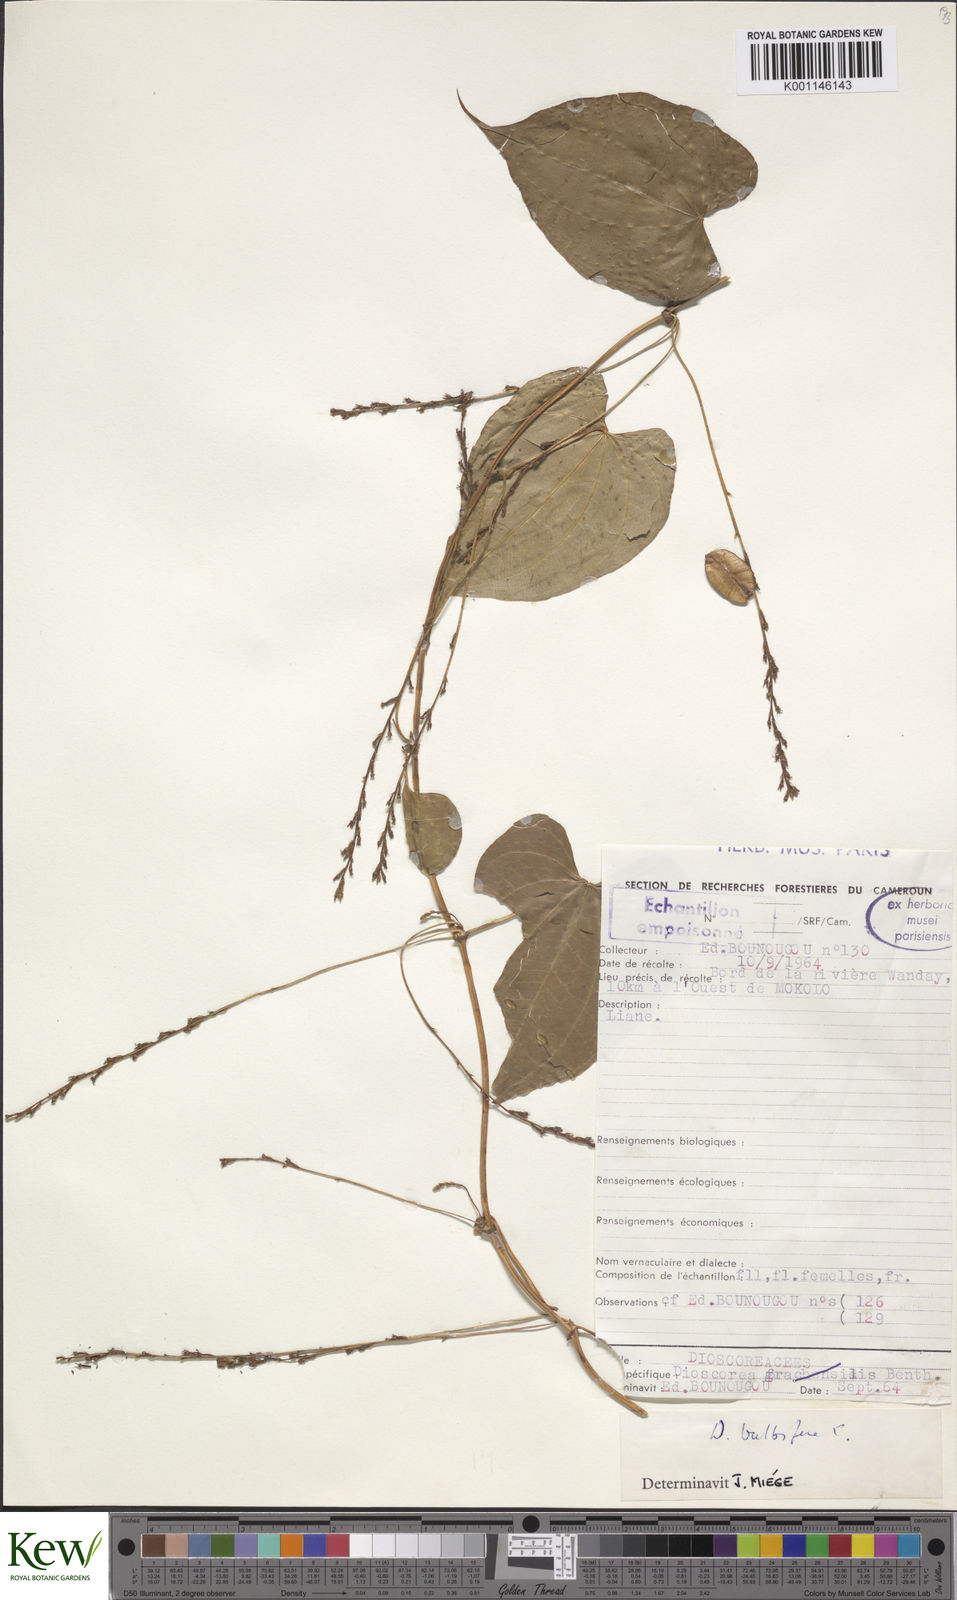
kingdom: Plantae
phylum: Tracheophyta
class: Liliopsida
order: Dioscoreales
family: Dioscoreaceae
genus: Dioscorea
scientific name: Dioscorea bulbifera
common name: Air yam
